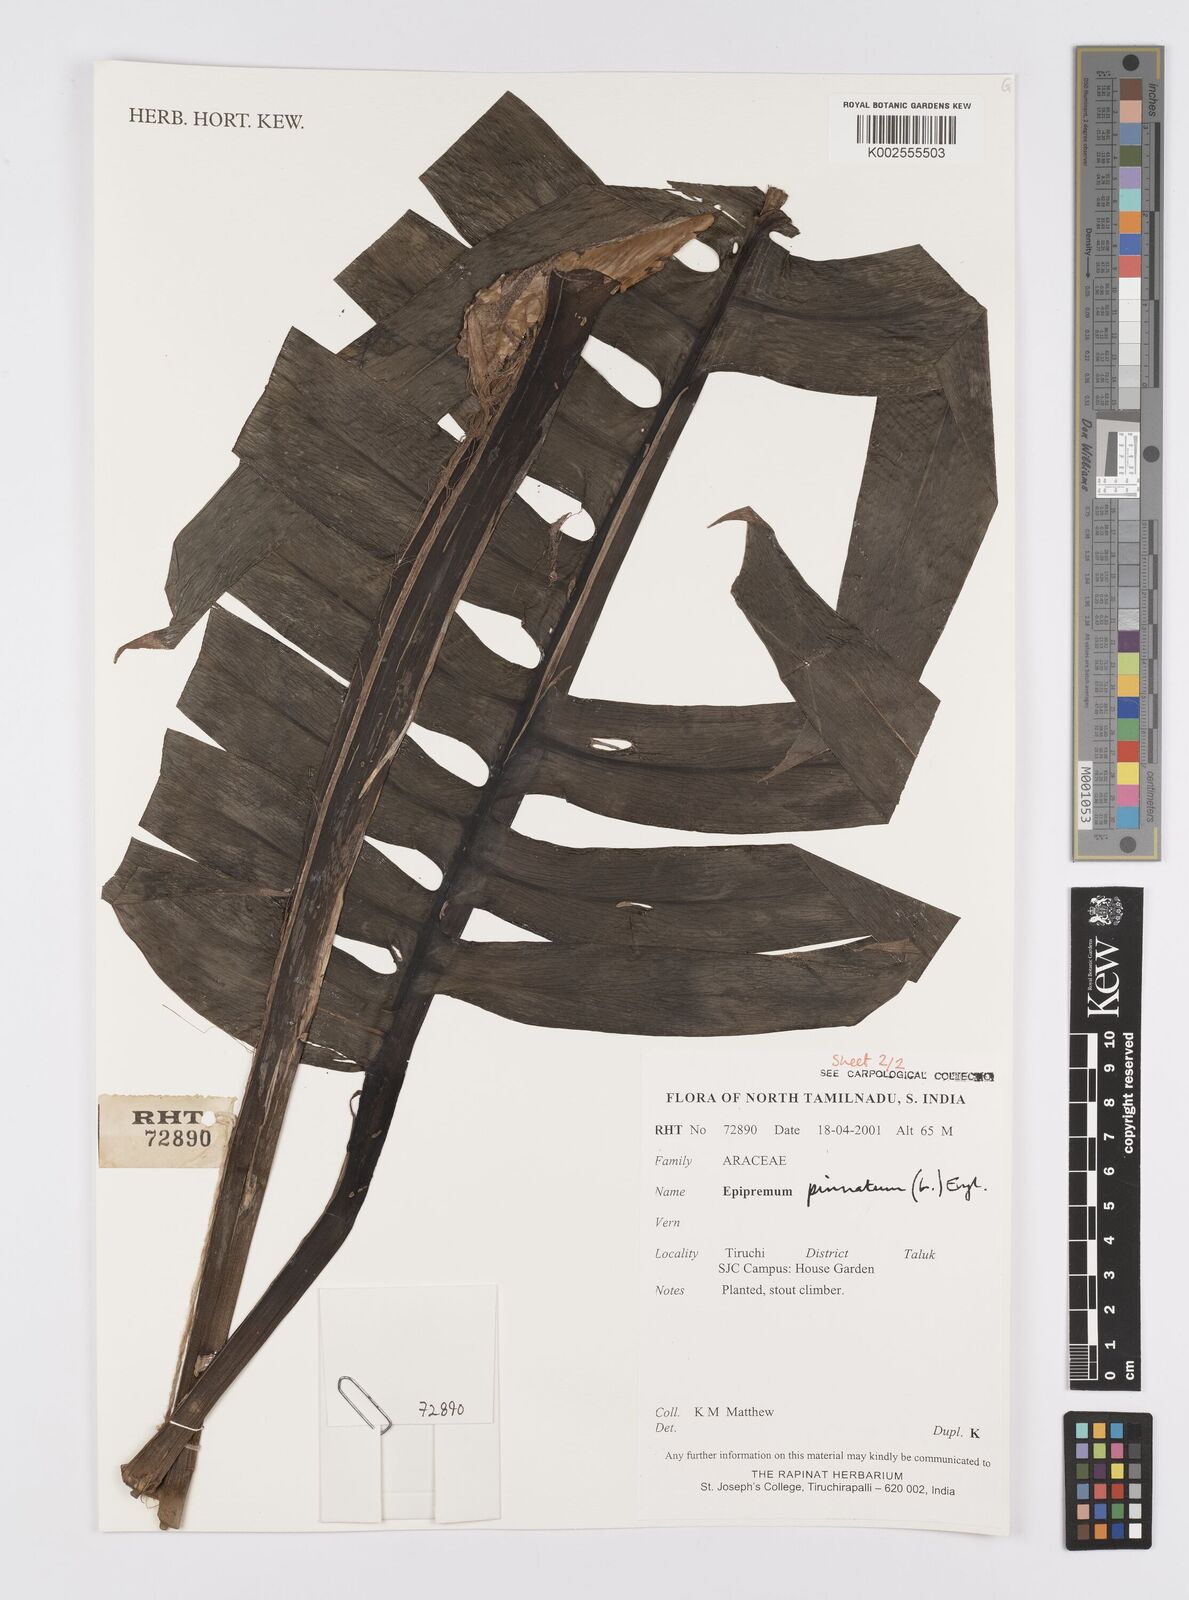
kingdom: Plantae
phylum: Tracheophyta
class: Liliopsida
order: Alismatales
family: Araceae
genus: Epipremnum
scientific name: Epipremnum pinnatum
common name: Centipede tongavine
